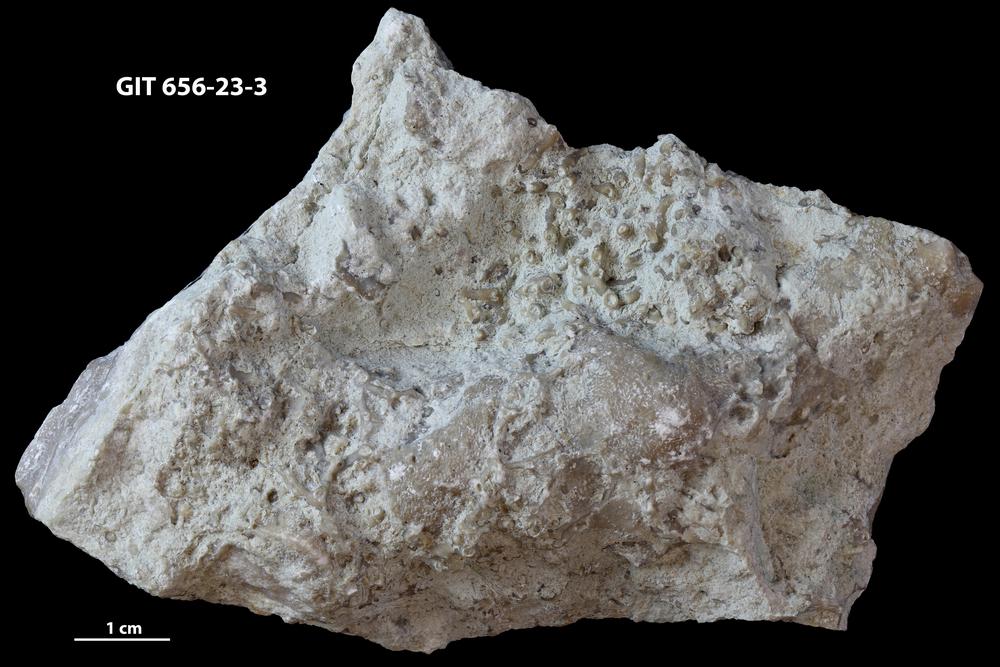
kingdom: Animalia
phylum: Cnidaria
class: Anthozoa
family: Auloporidae
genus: Aulopora
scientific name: Aulopora
